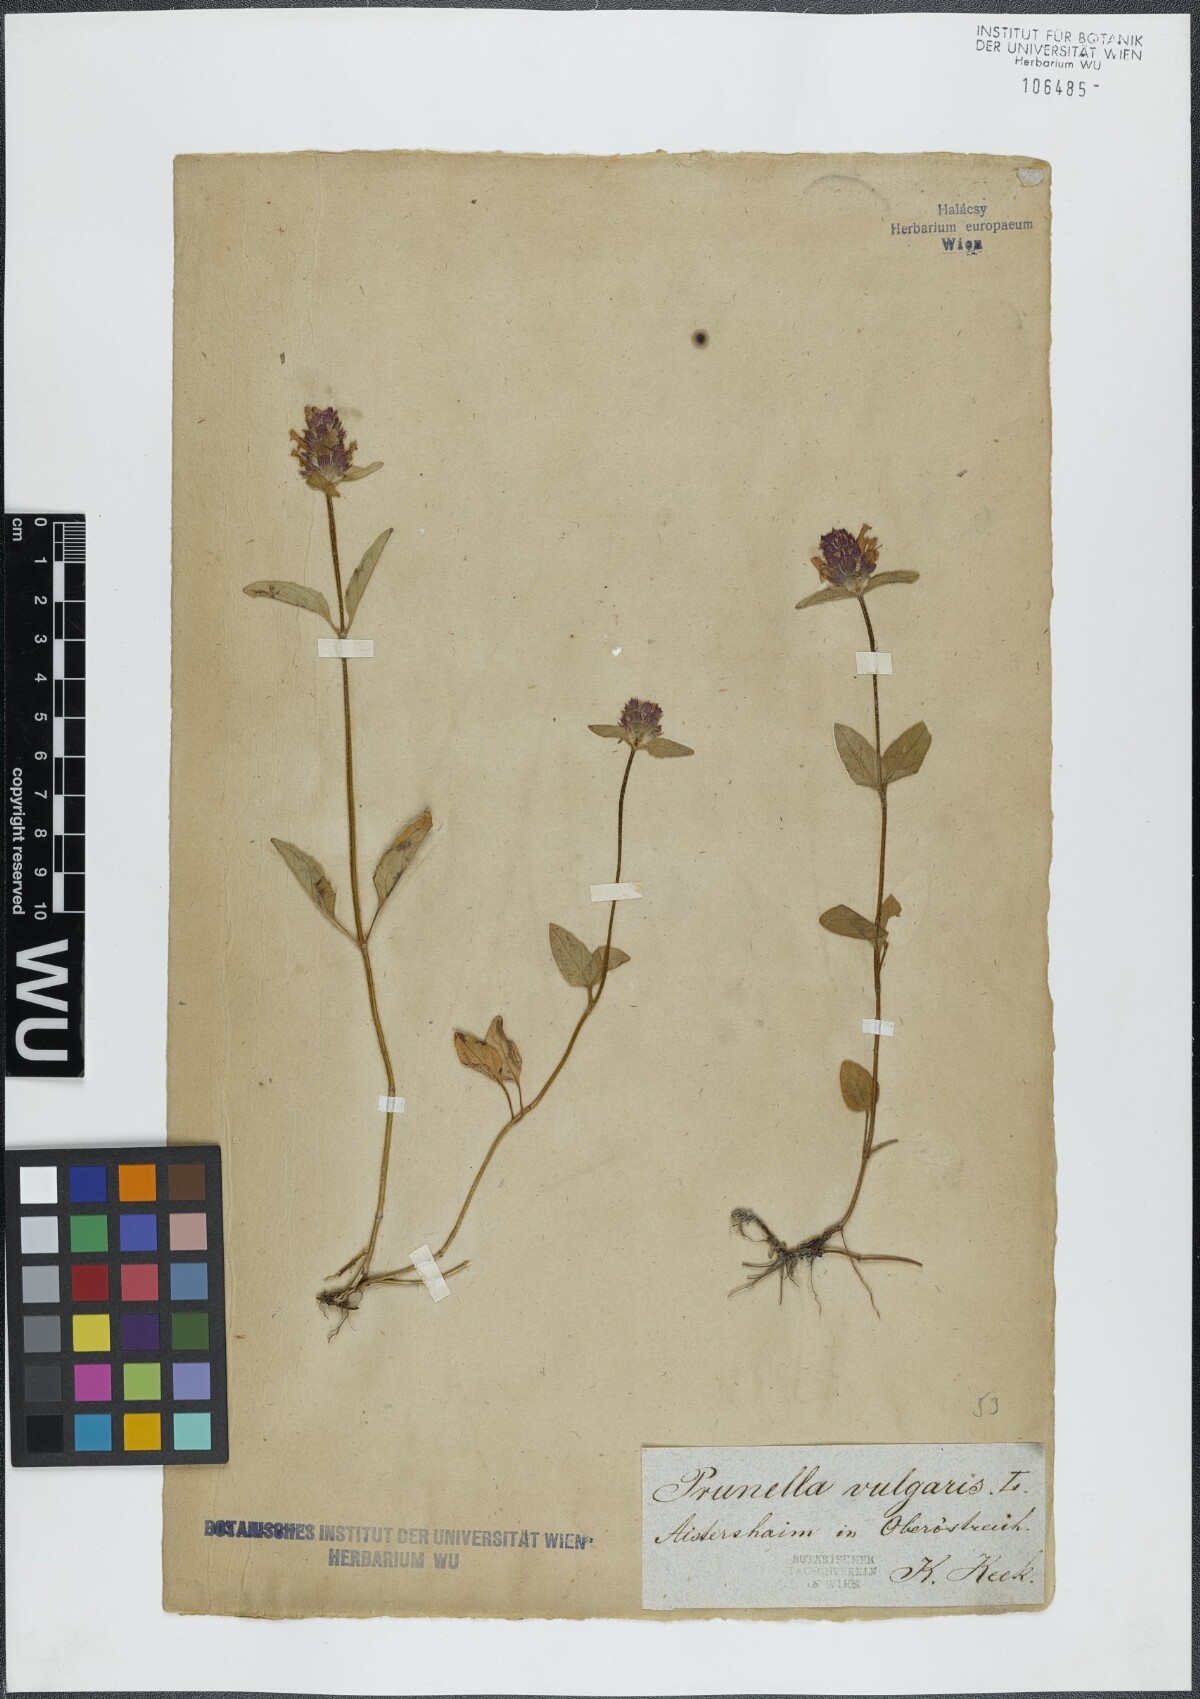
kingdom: Plantae
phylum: Tracheophyta
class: Magnoliopsida
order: Lamiales
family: Lamiaceae
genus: Prunella
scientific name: Prunella vulgaris
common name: Heal-all
